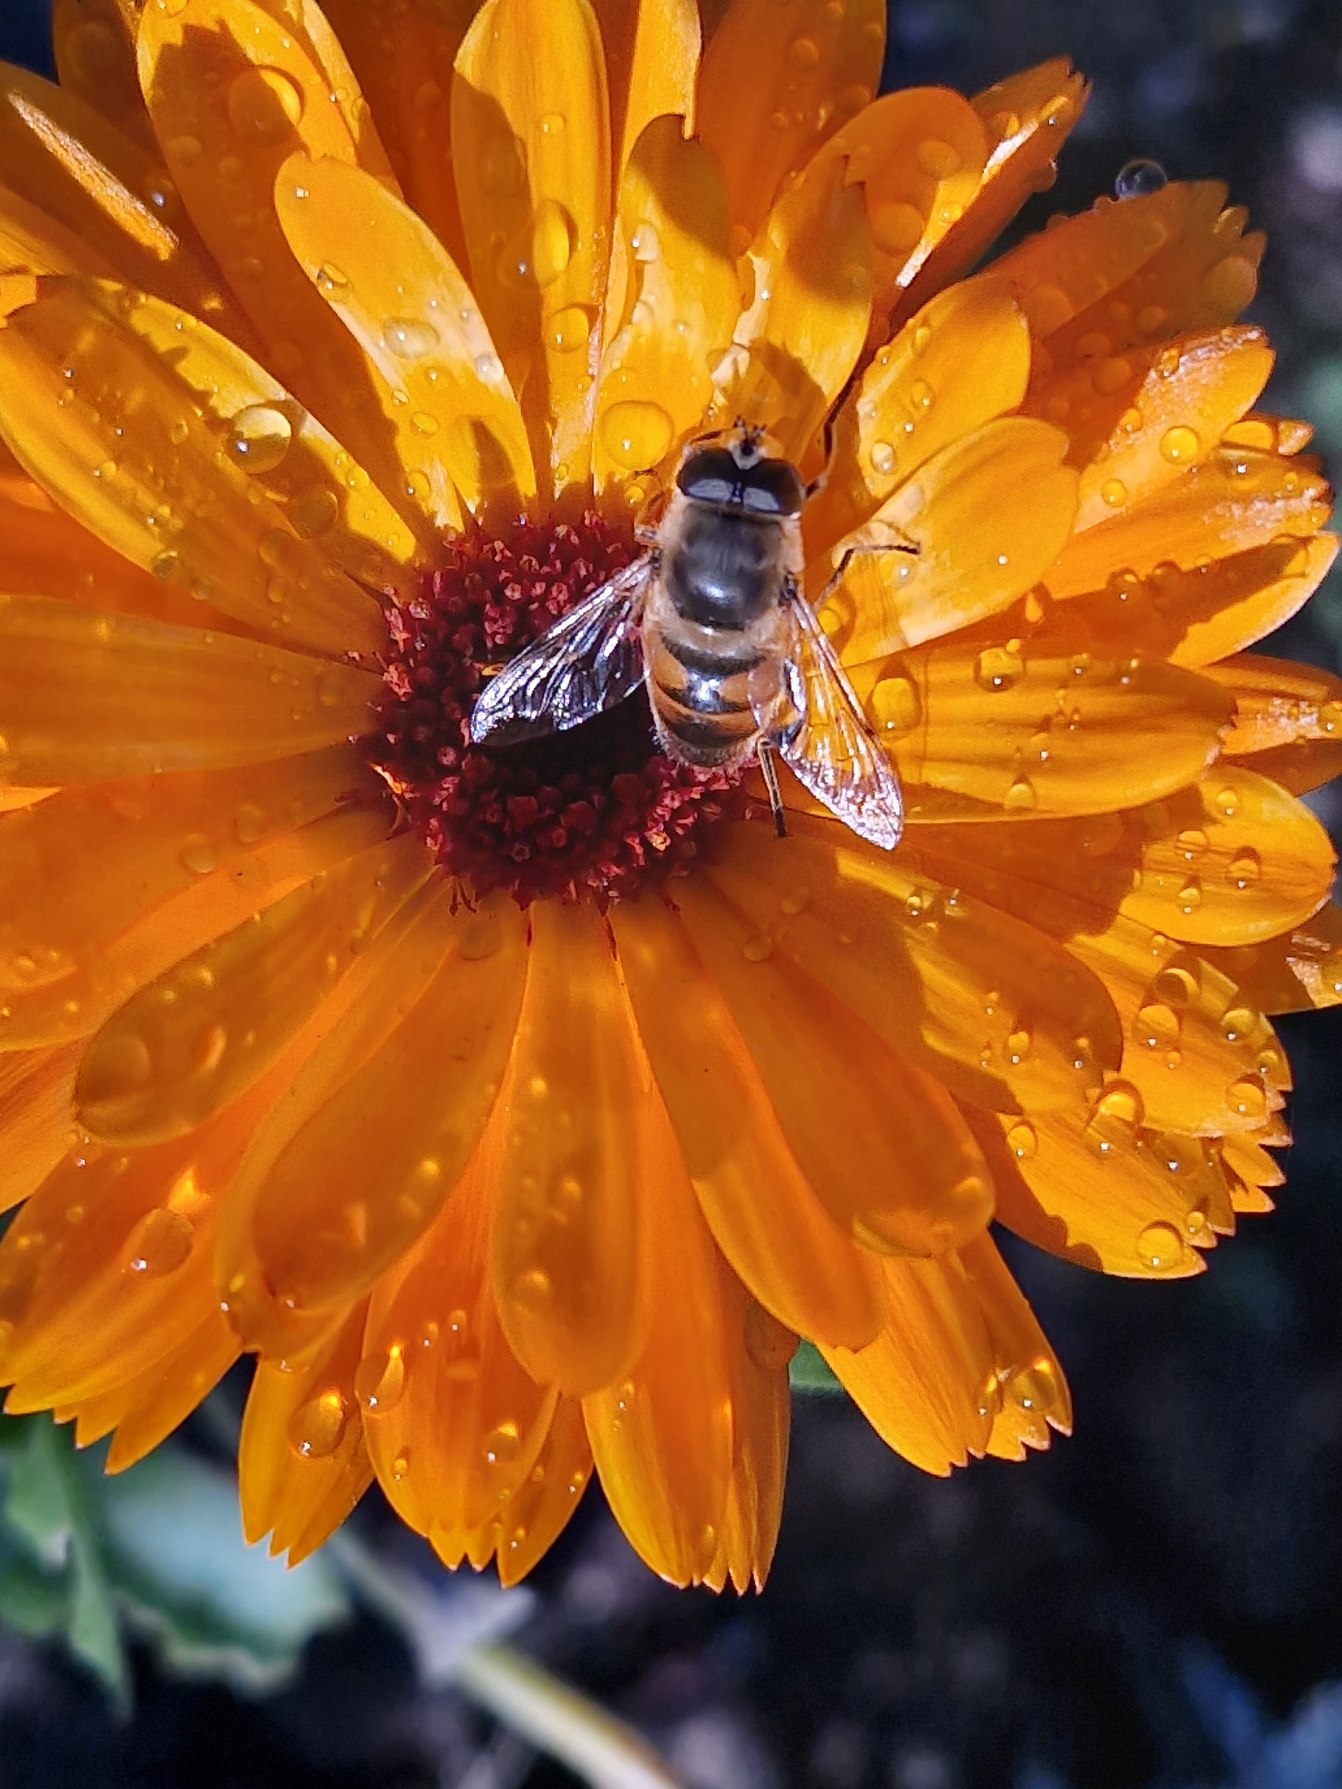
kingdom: Animalia
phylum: Arthropoda
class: Insecta
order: Diptera
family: Syrphidae
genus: Eristalis
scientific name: Eristalis tenax
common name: Droneflue
